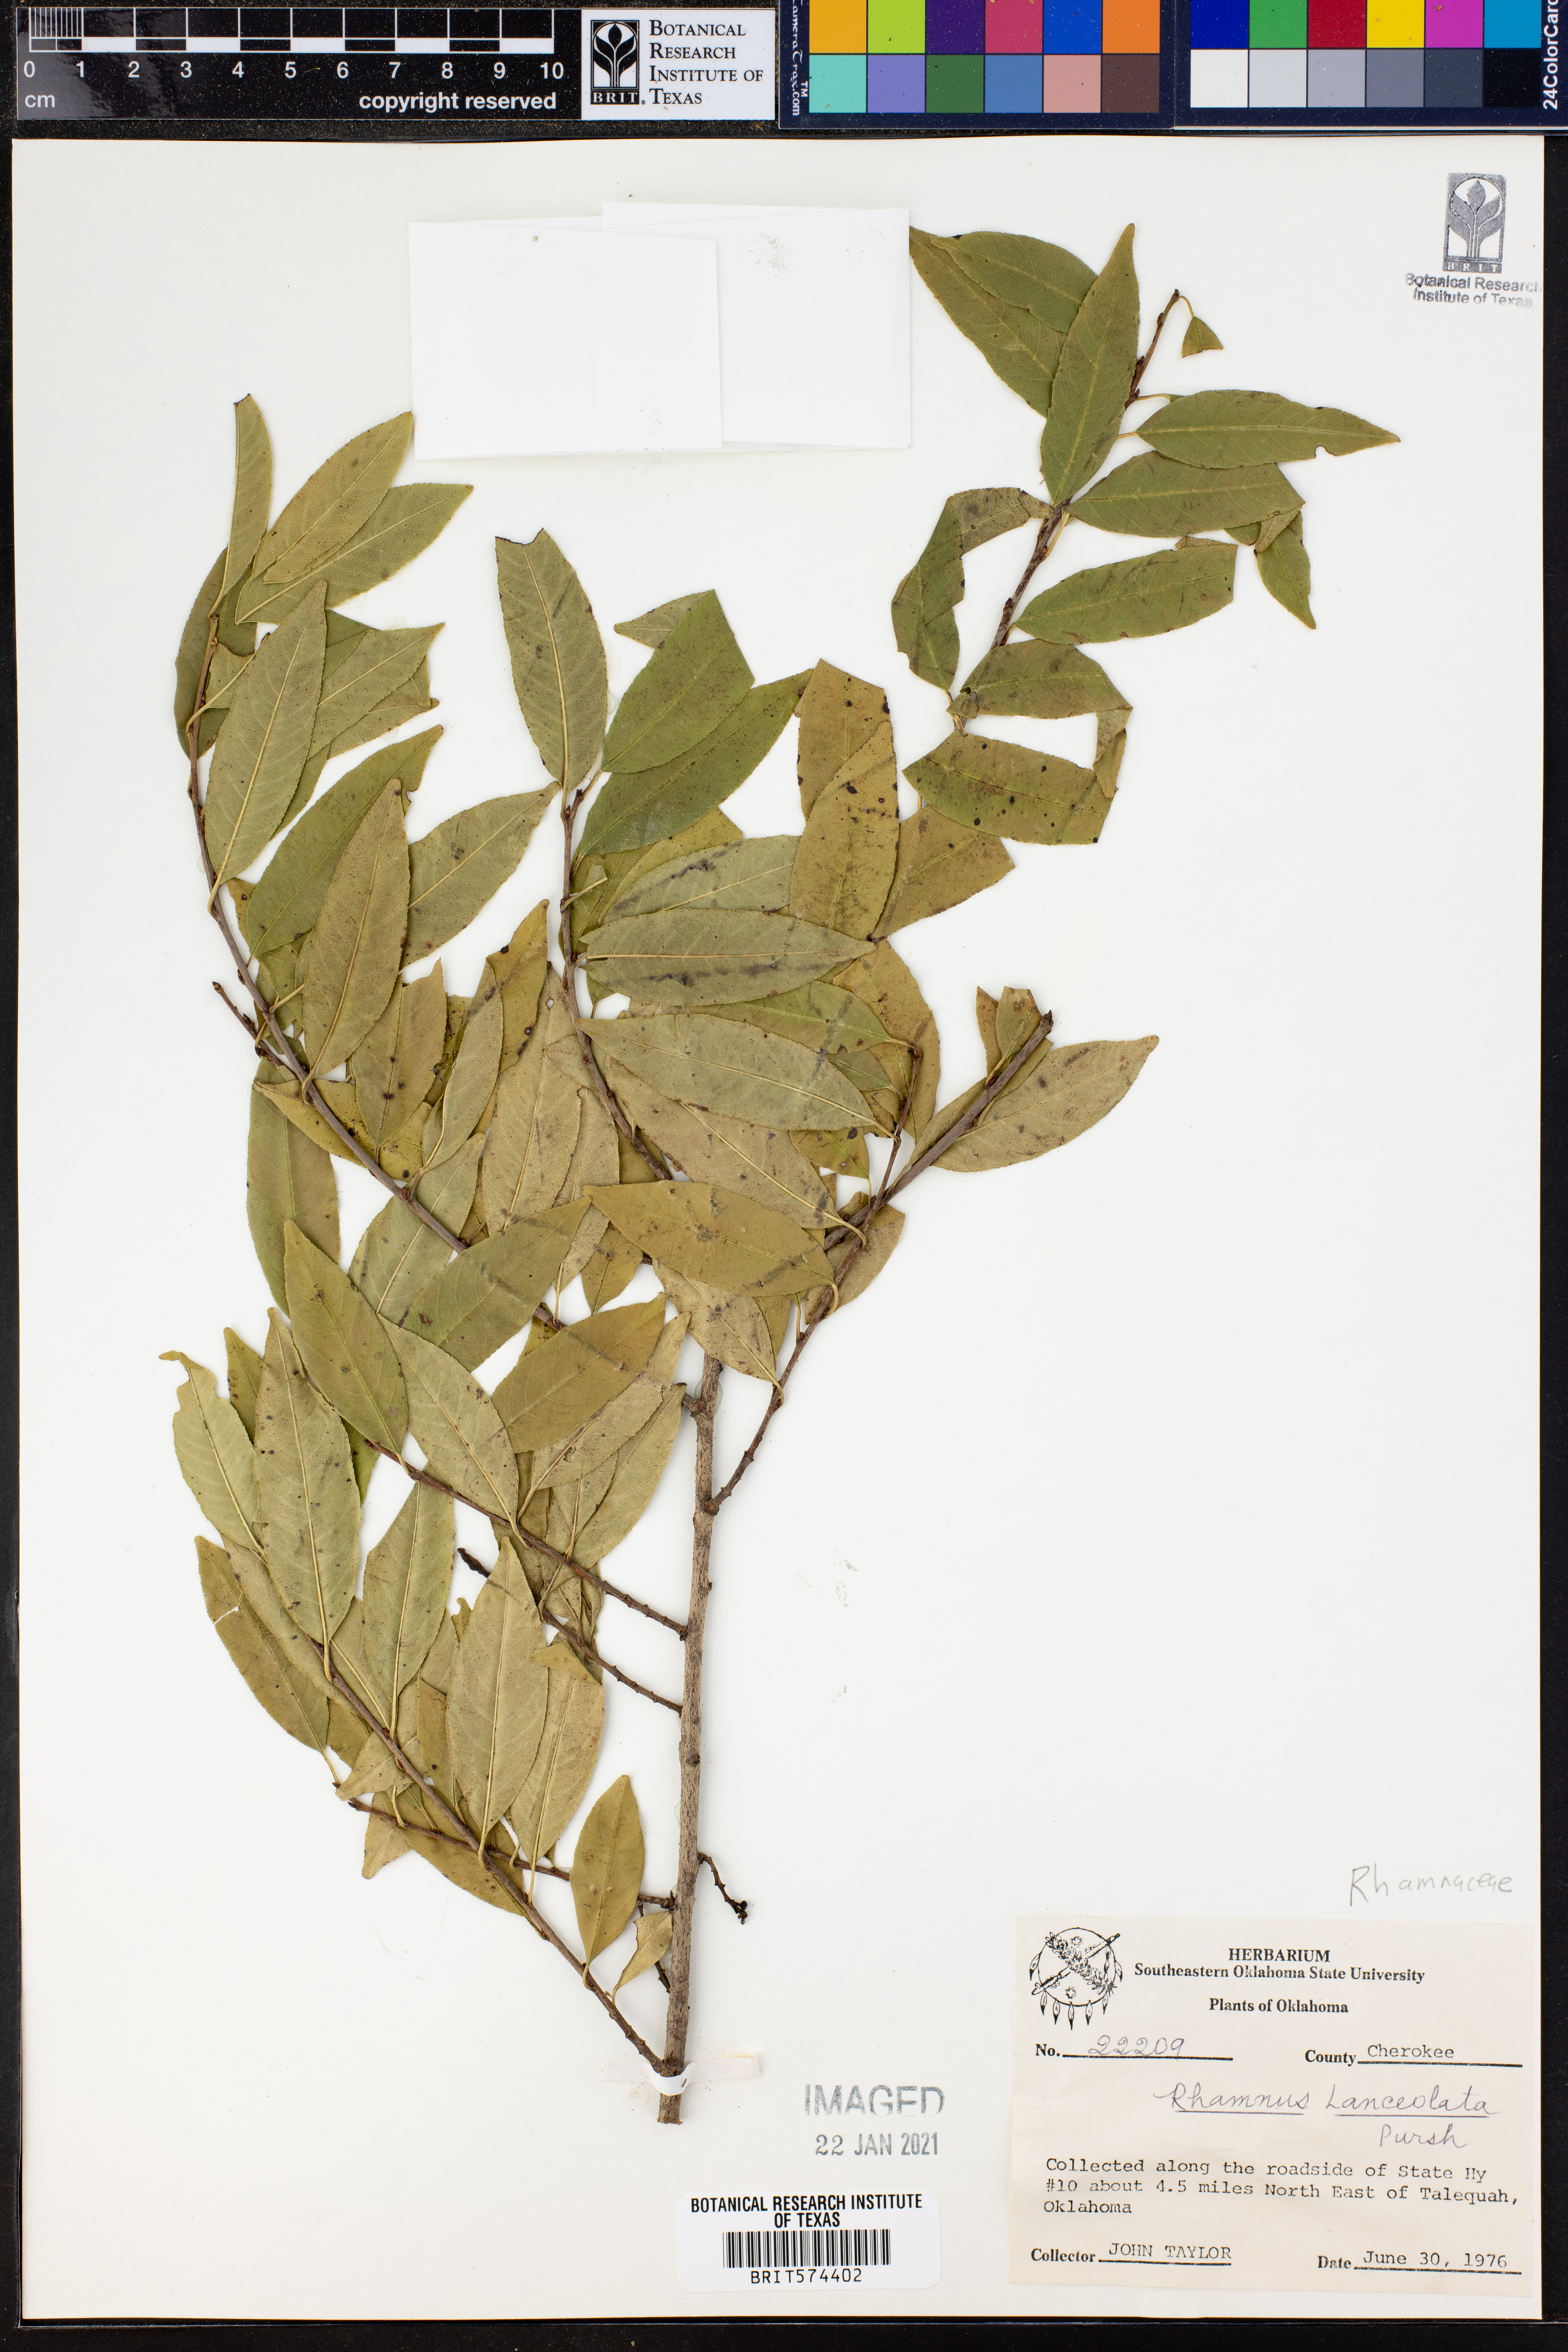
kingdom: Plantae
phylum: Tracheophyta
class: Magnoliopsida
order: Rosales
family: Rhamnaceae
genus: Endotropis
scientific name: Endotropis lanceolata
